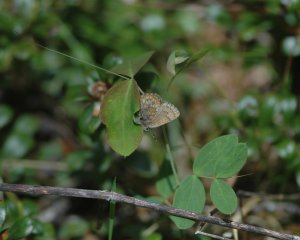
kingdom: Animalia
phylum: Arthropoda
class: Insecta
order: Lepidoptera
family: Lycaenidae
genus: Incisalia
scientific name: Incisalia niphon
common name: Eastern Pine Elfin
